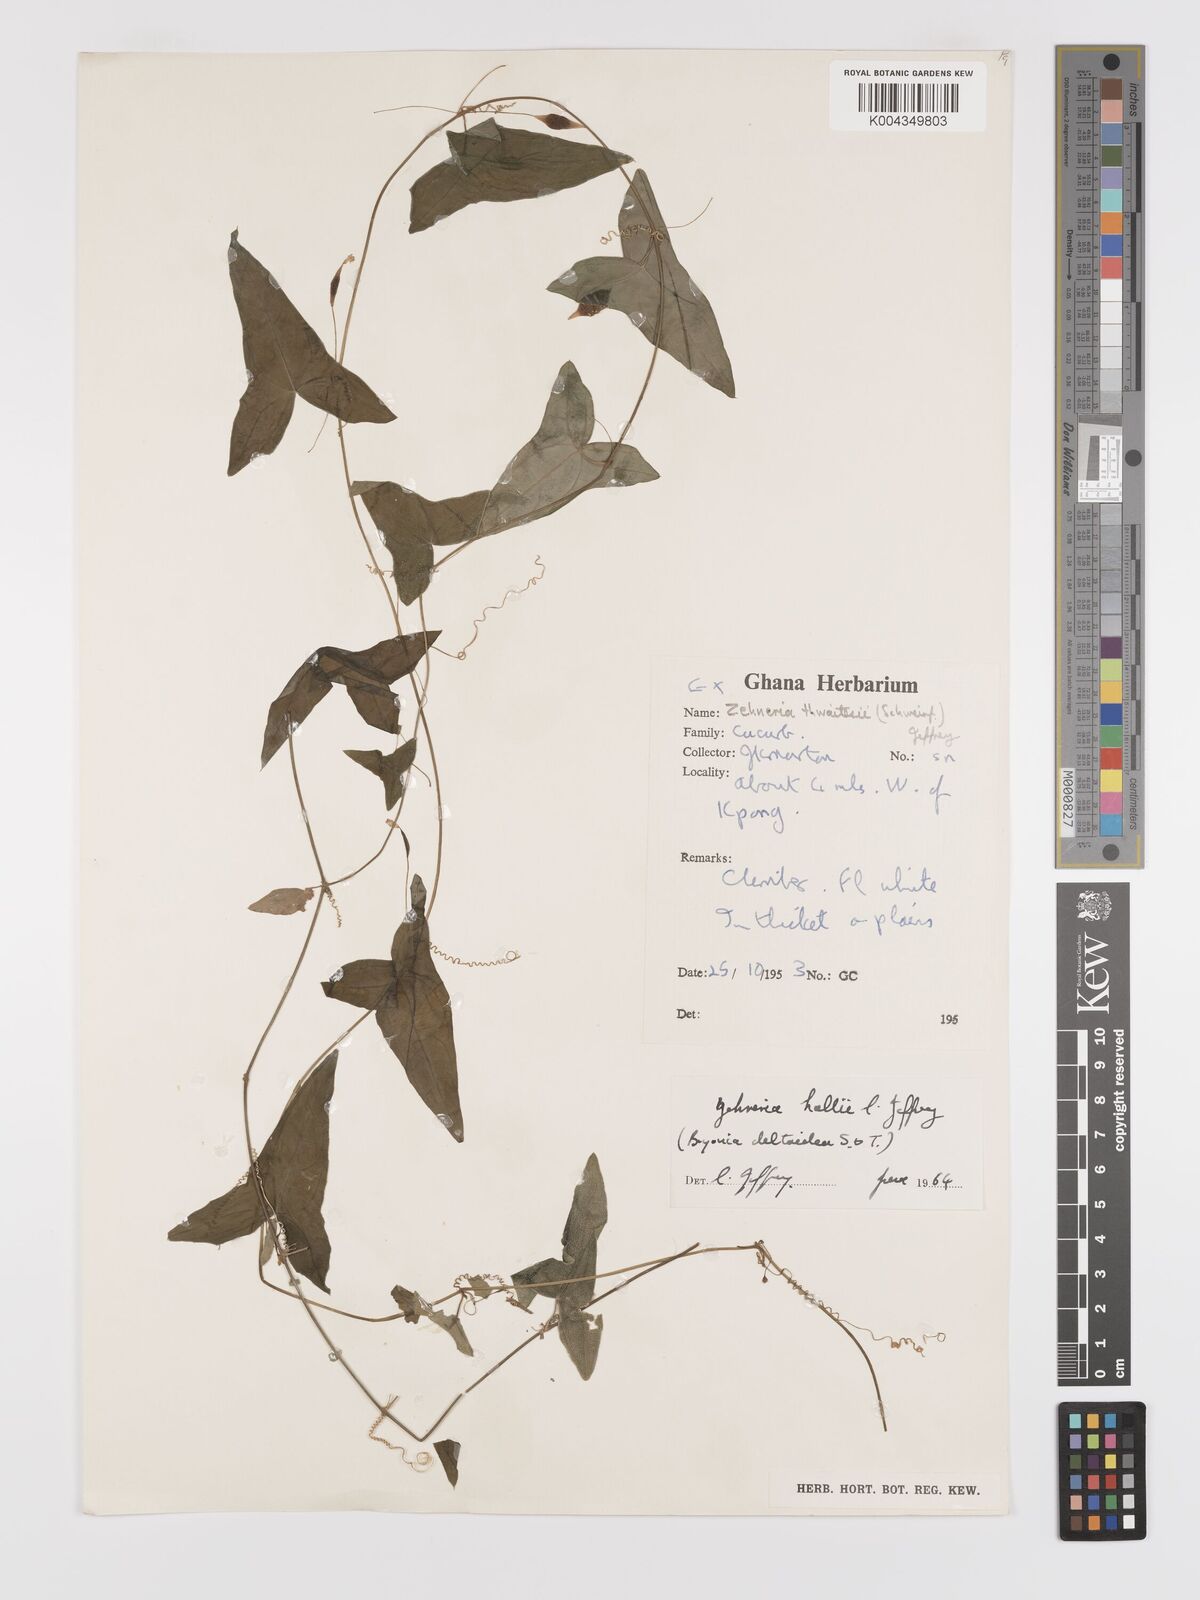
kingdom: Plantae
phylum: Tracheophyta
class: Magnoliopsida
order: Cucurbitales
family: Cucurbitaceae
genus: Zehneria
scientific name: Zehneria hallii
